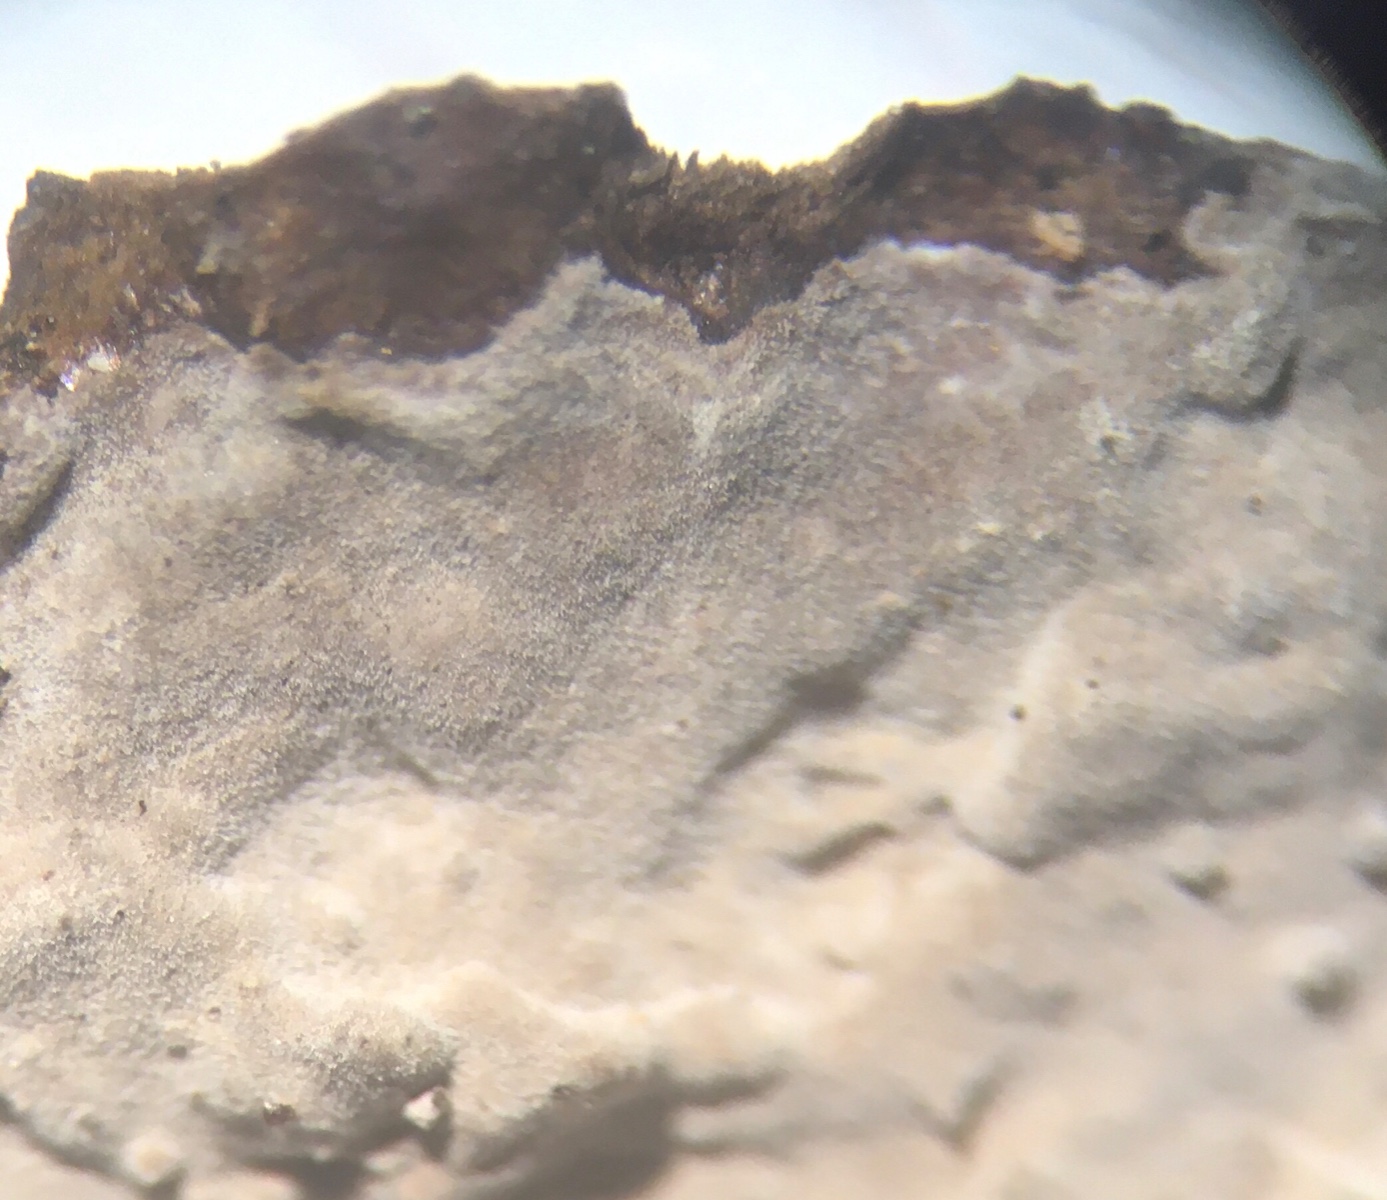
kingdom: Fungi
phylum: Basidiomycota
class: Agaricomycetes
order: Russulales
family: Peniophoraceae
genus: Peniophora
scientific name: Peniophora
